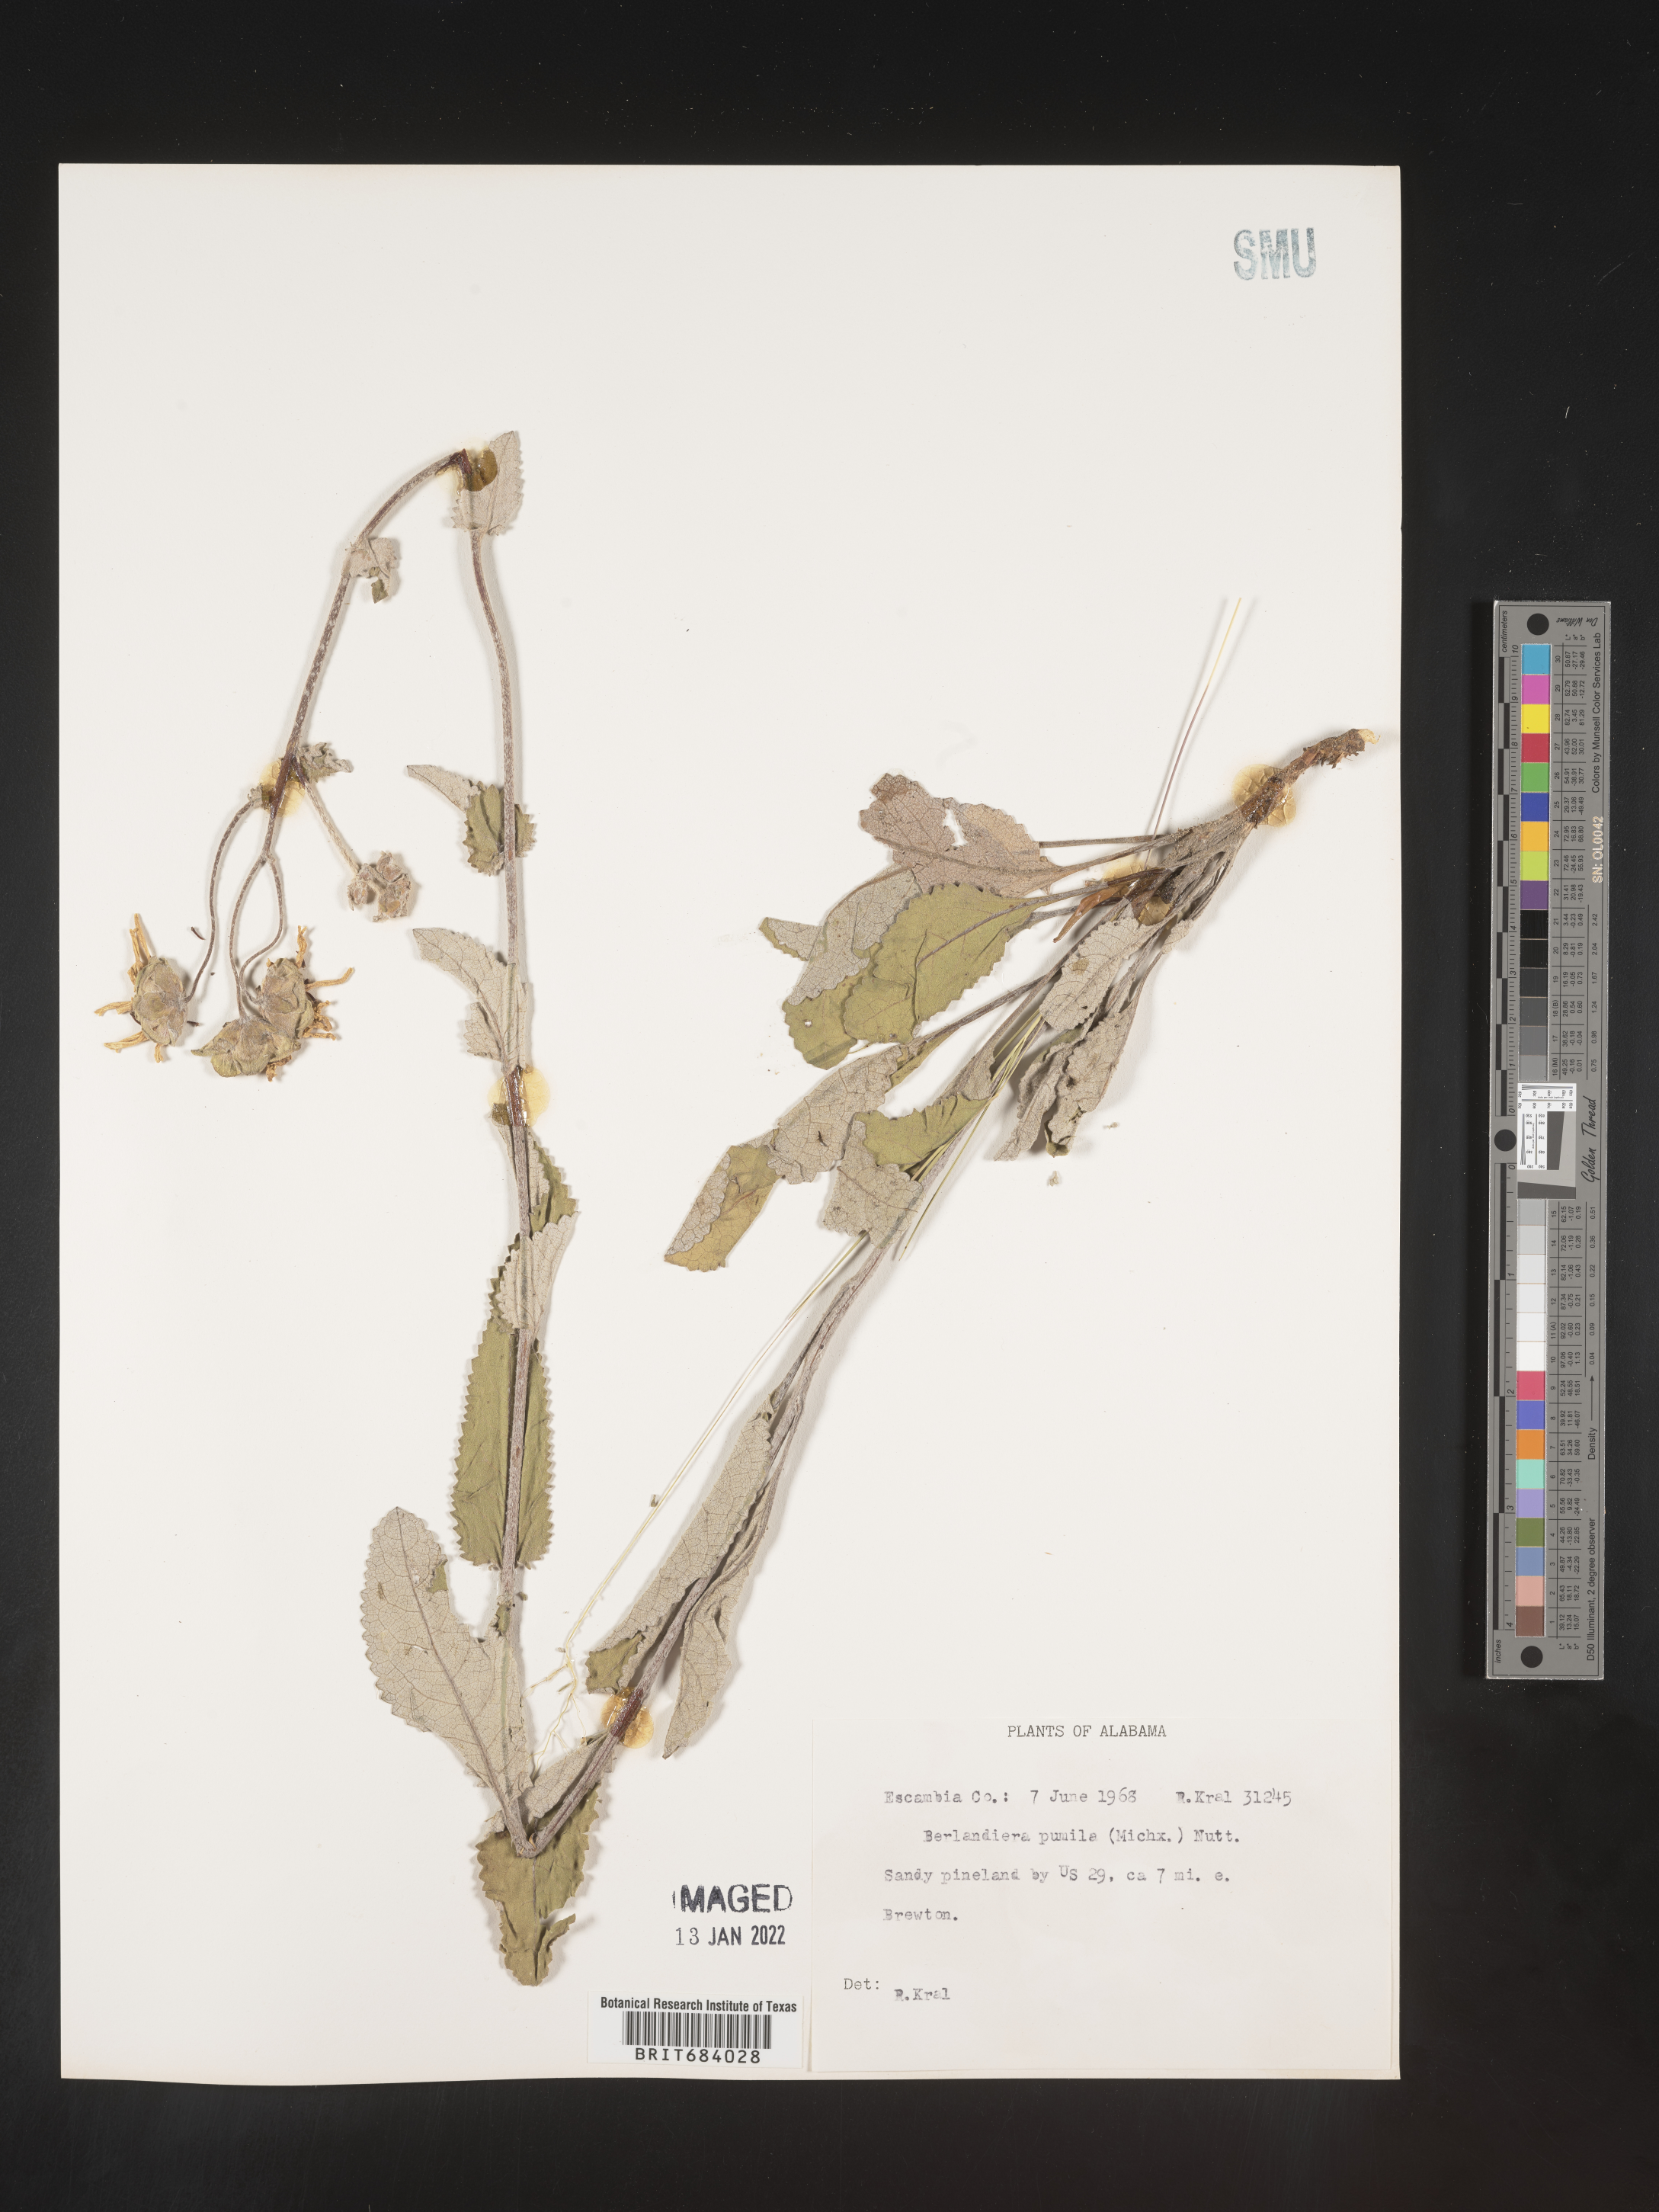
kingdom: Plantae
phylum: Tracheophyta
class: Magnoliopsida
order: Asterales
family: Asteraceae
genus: Berlandiera
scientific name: Berlandiera pumila
